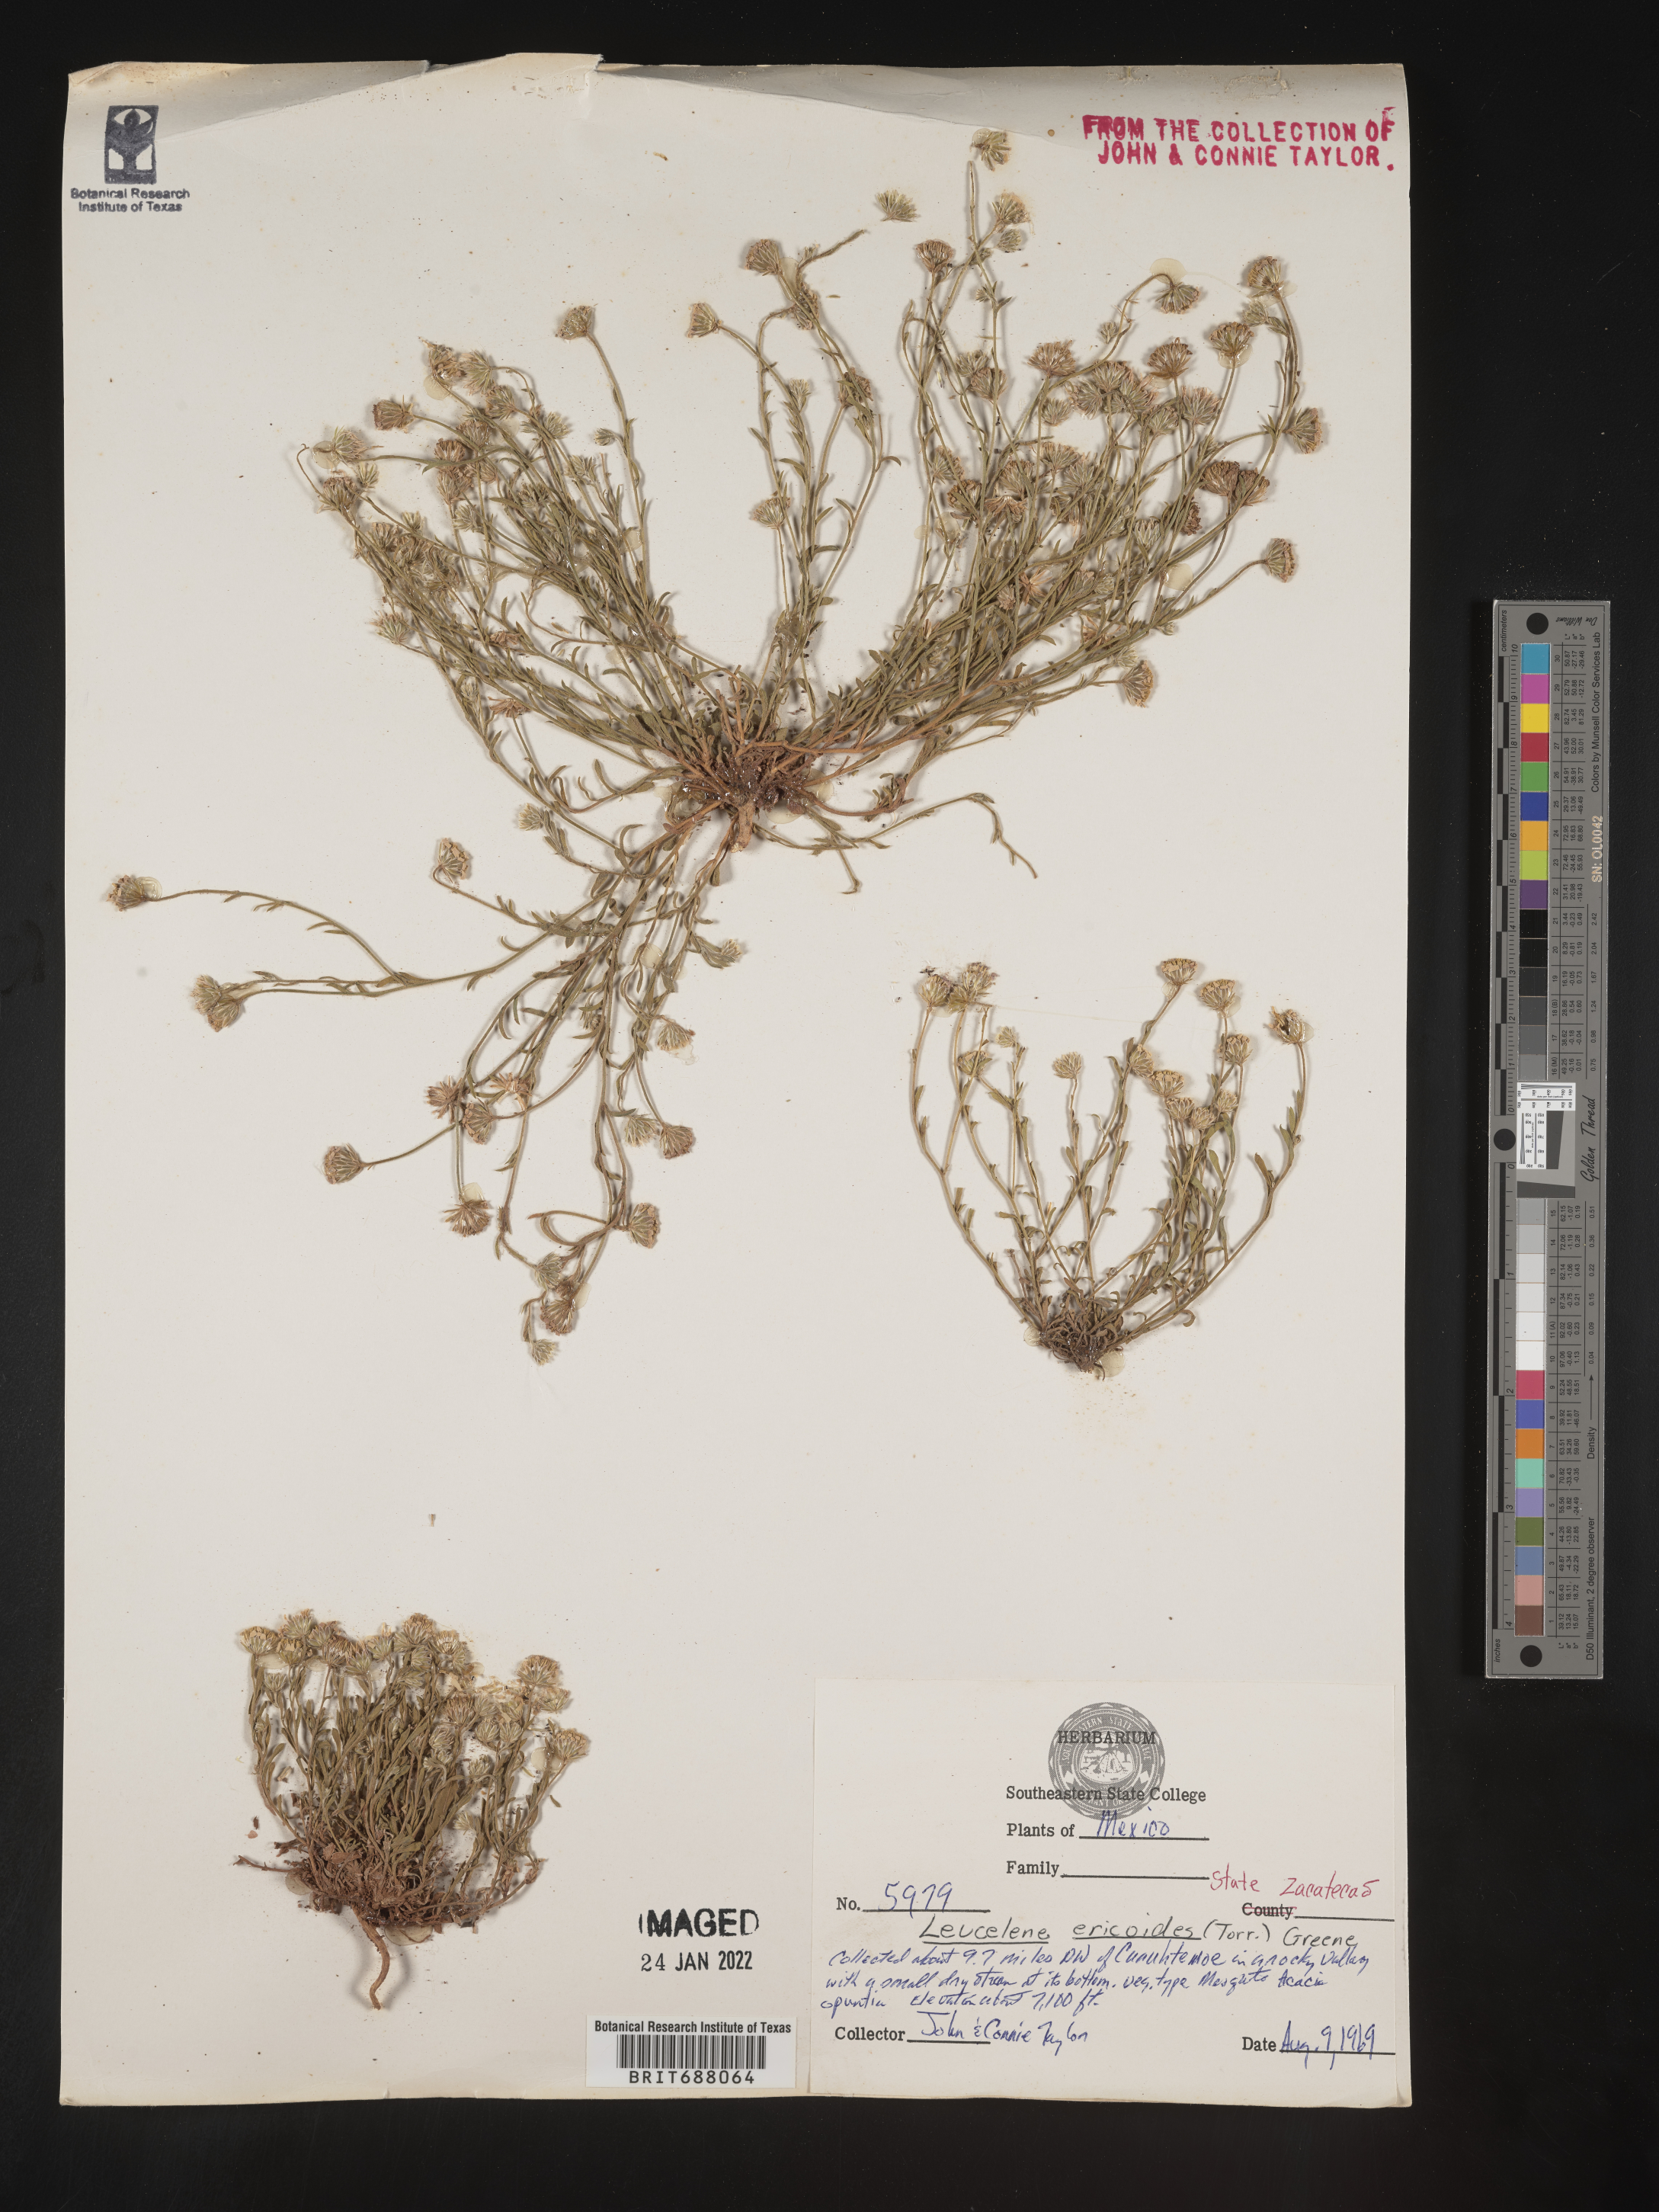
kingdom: Plantae
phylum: Tracheophyta
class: Magnoliopsida
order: Asterales
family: Asteraceae
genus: Chaetopappa
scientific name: Chaetopappa
